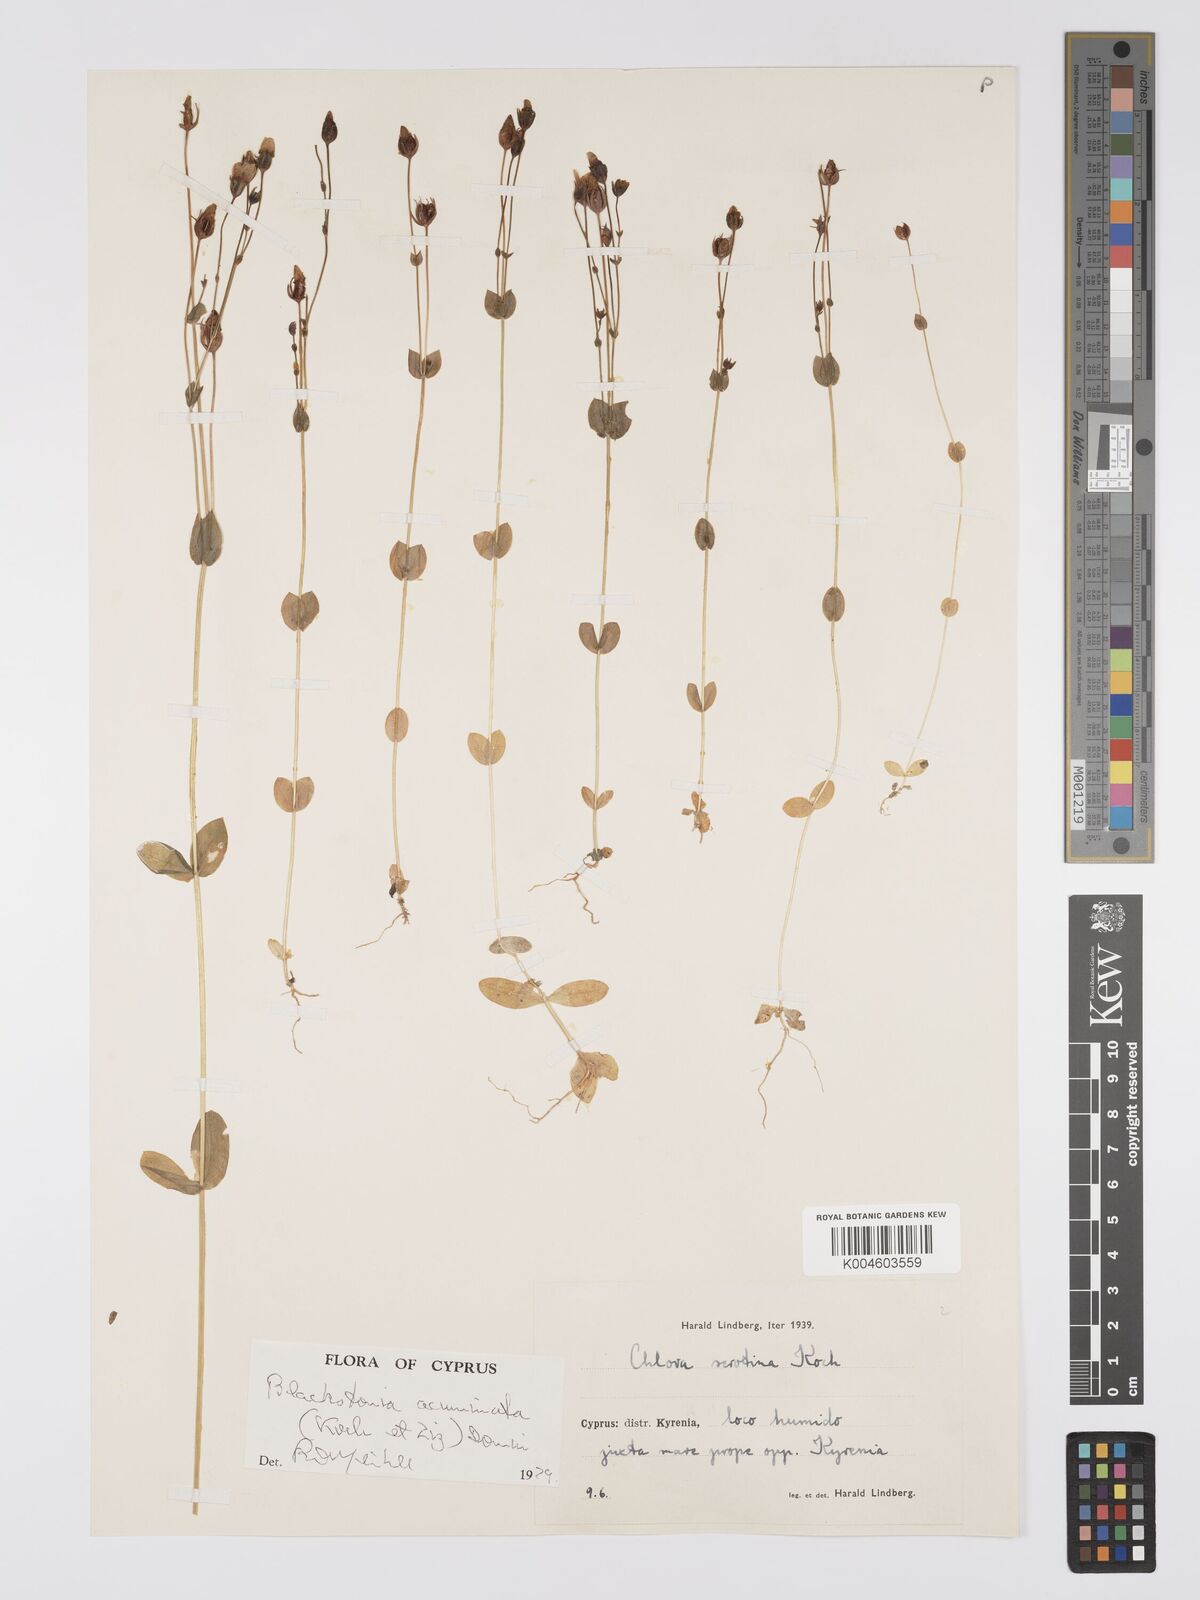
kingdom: Plantae
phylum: Tracheophyta
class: Magnoliopsida
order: Gentianales
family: Gentianaceae
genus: Blackstonia
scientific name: Blackstonia acuminata
